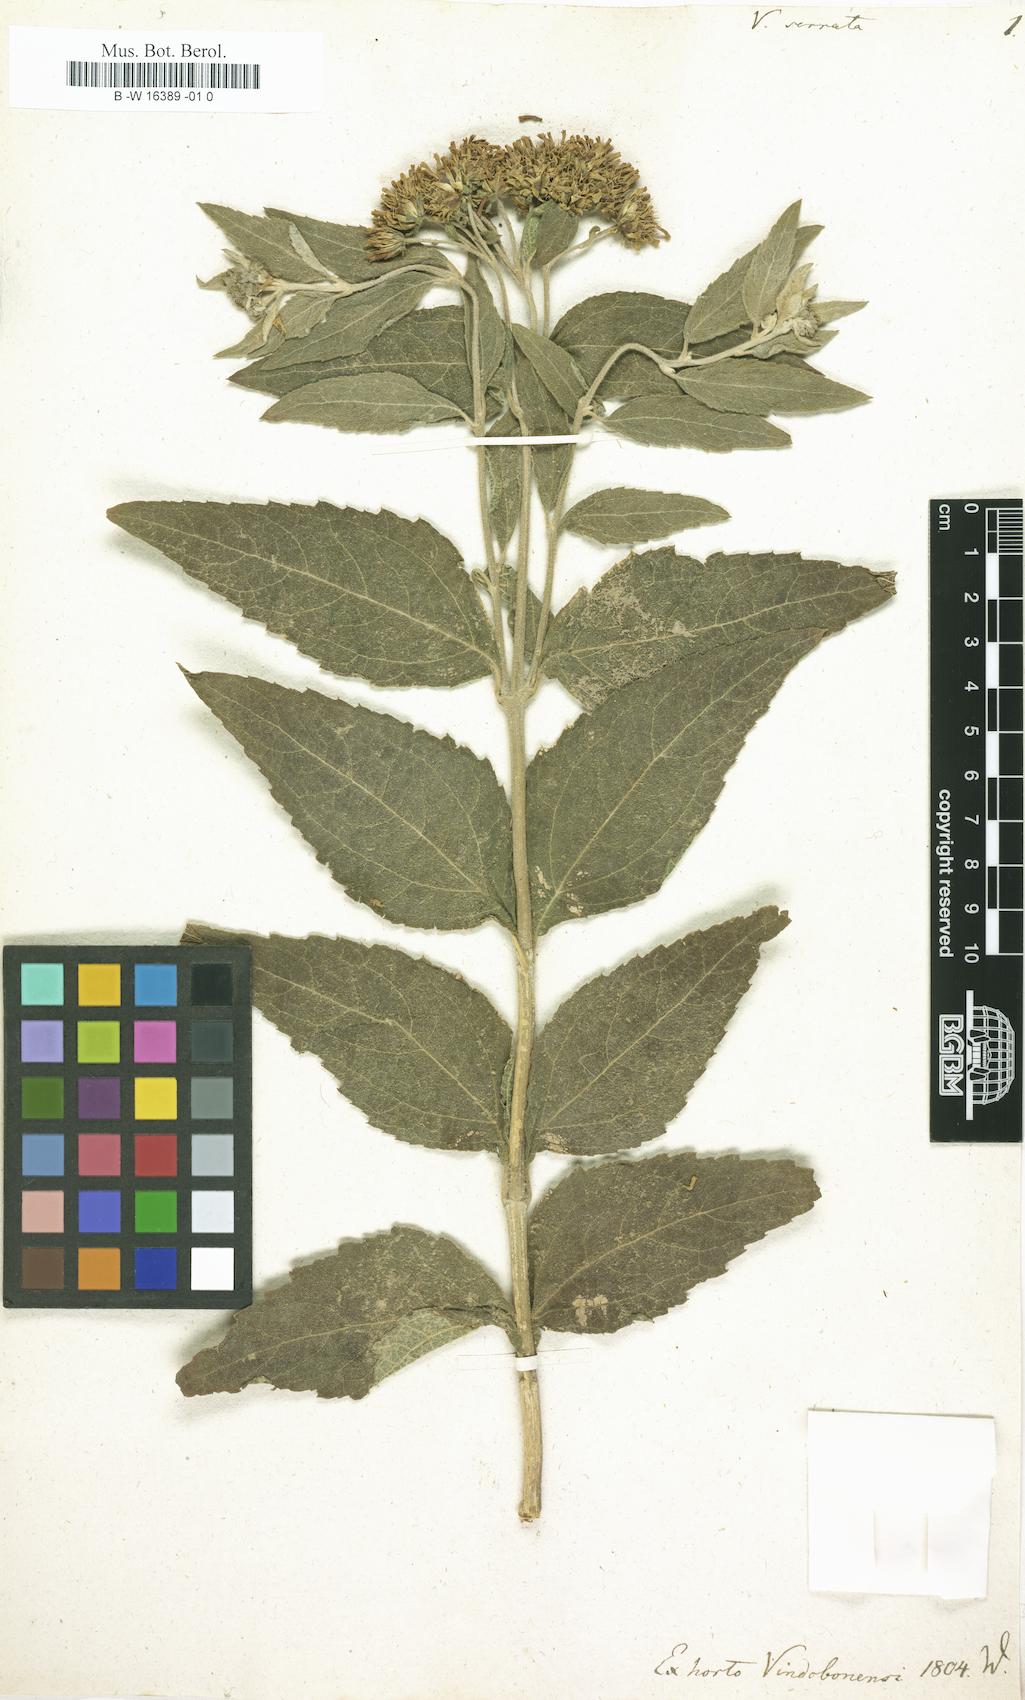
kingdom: Plantae
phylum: Tracheophyta
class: Magnoliopsida
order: Asterales
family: Asteraceae
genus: Verbesina
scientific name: Verbesina serrata
